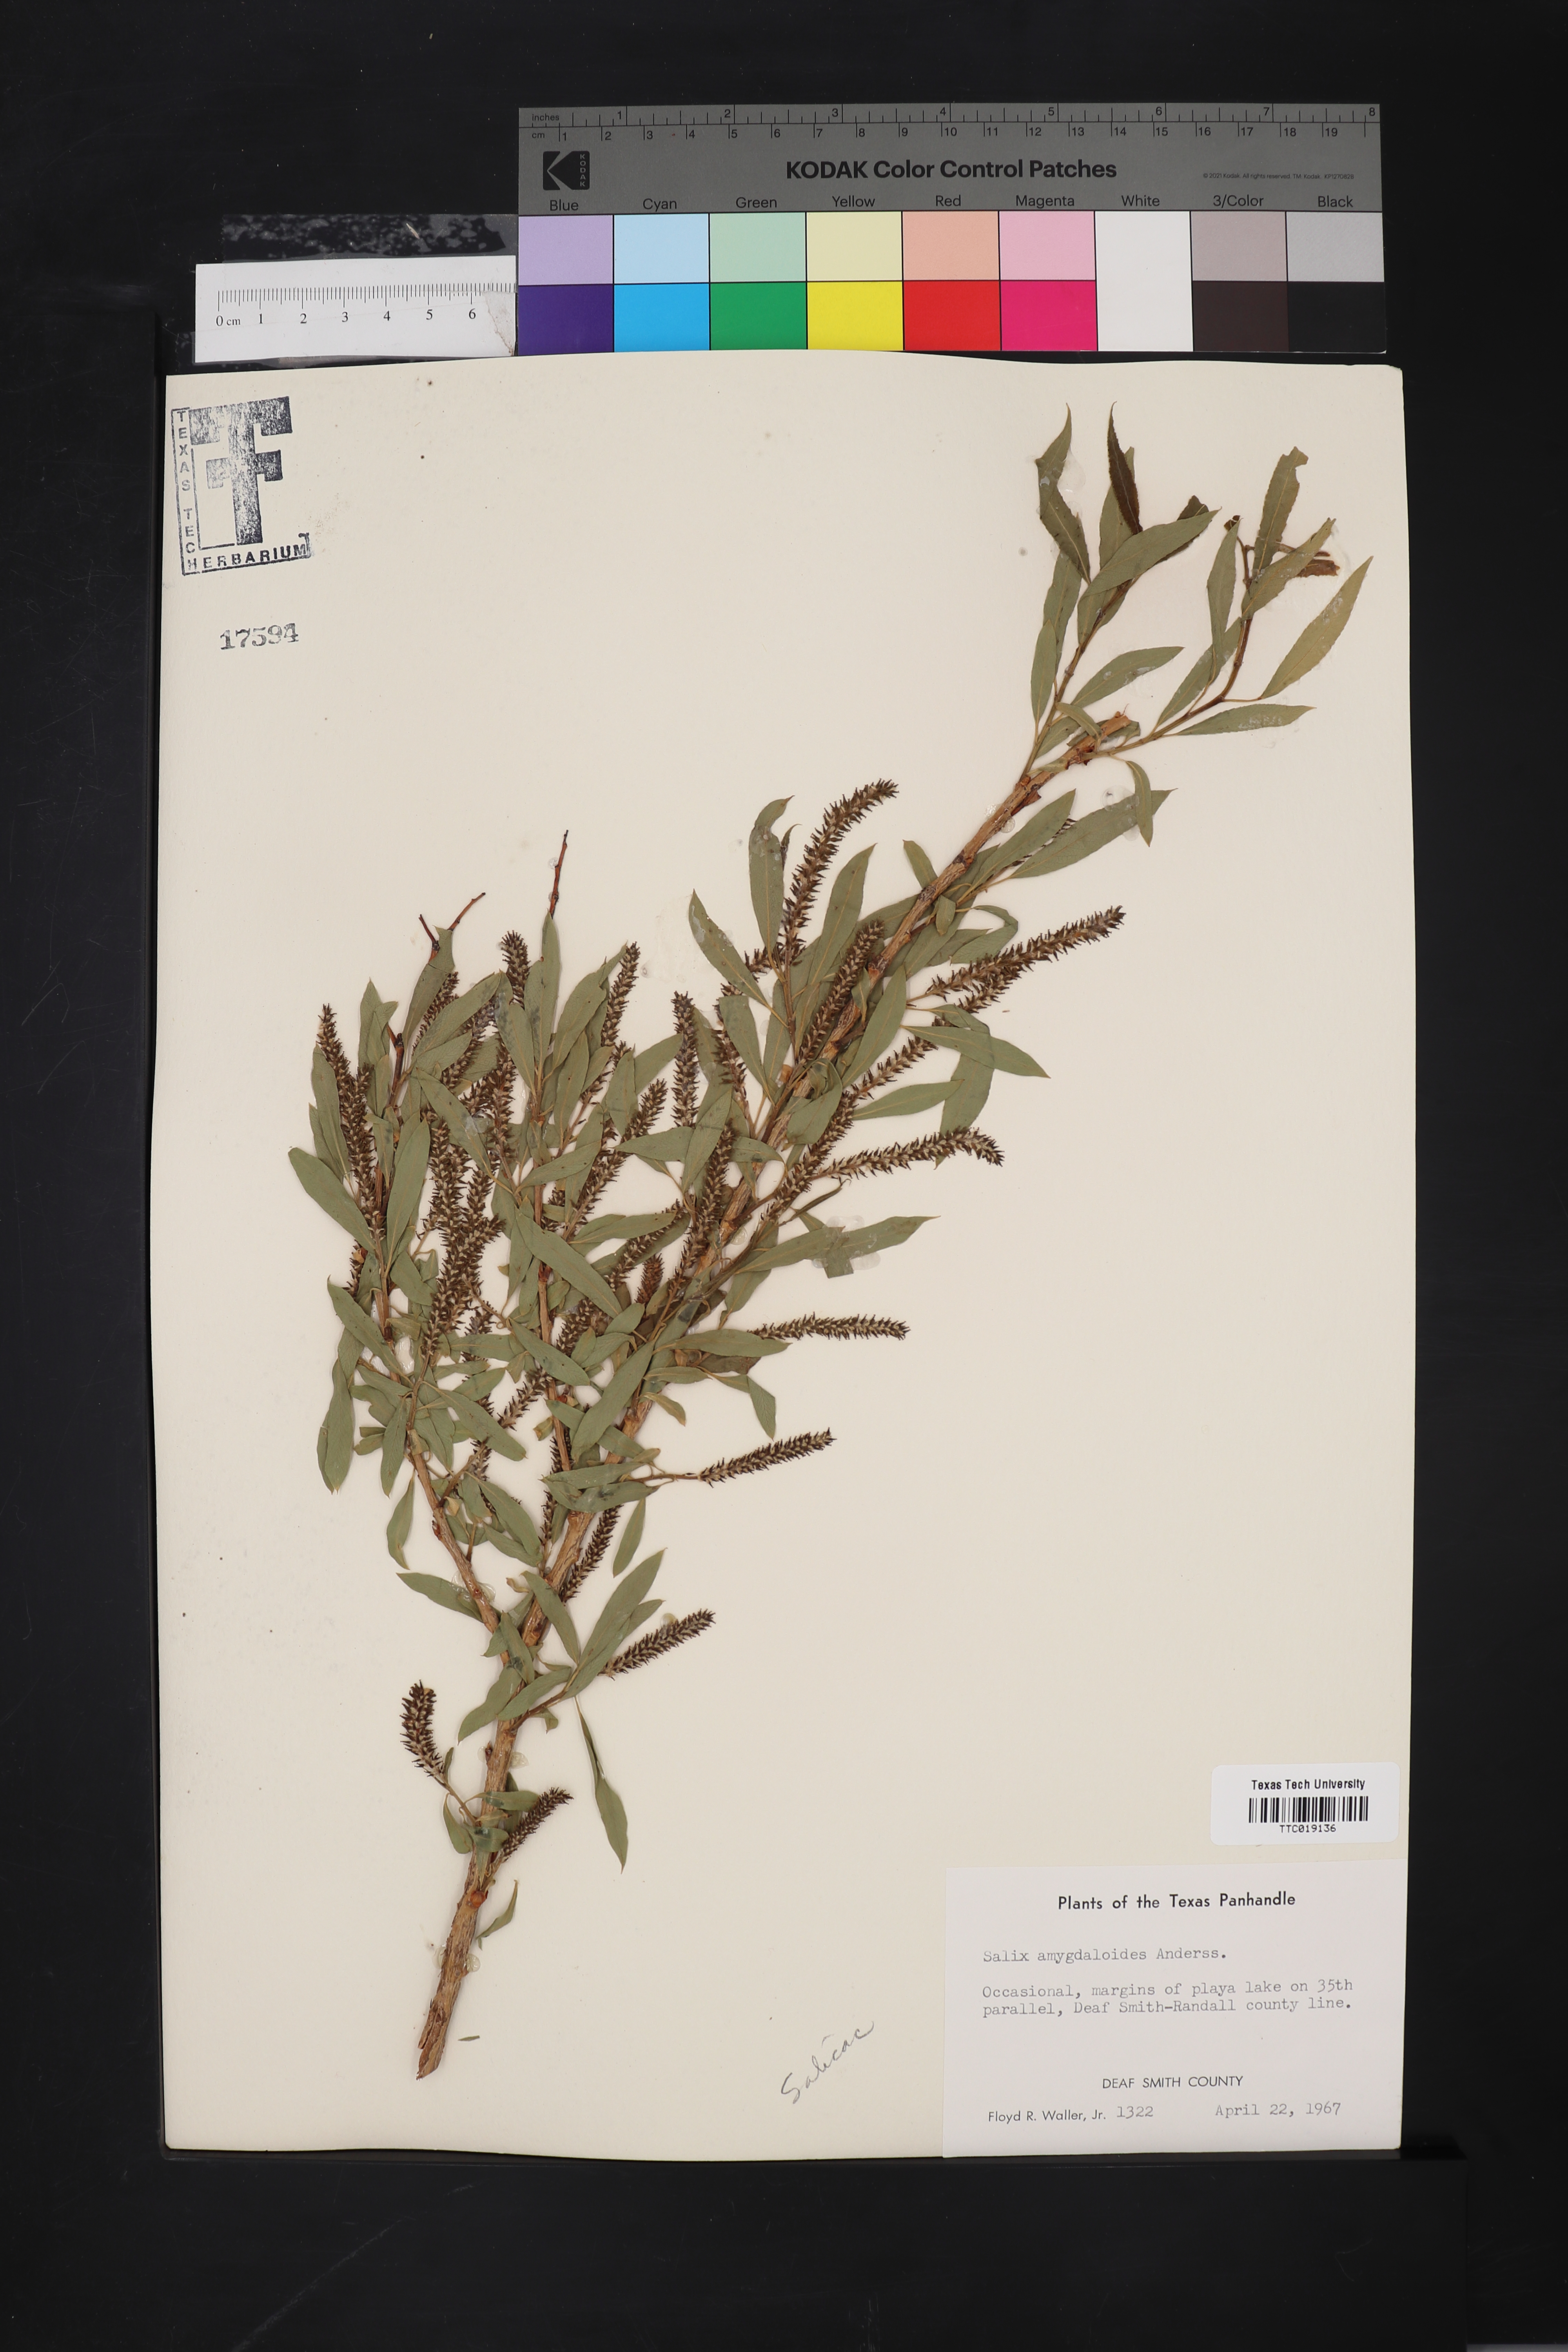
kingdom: Plantae
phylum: Tracheophyta
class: Magnoliopsida
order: Malpighiales
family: Salicaceae
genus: Salix
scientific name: Salix amygdaloides
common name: Peach leaf willow
